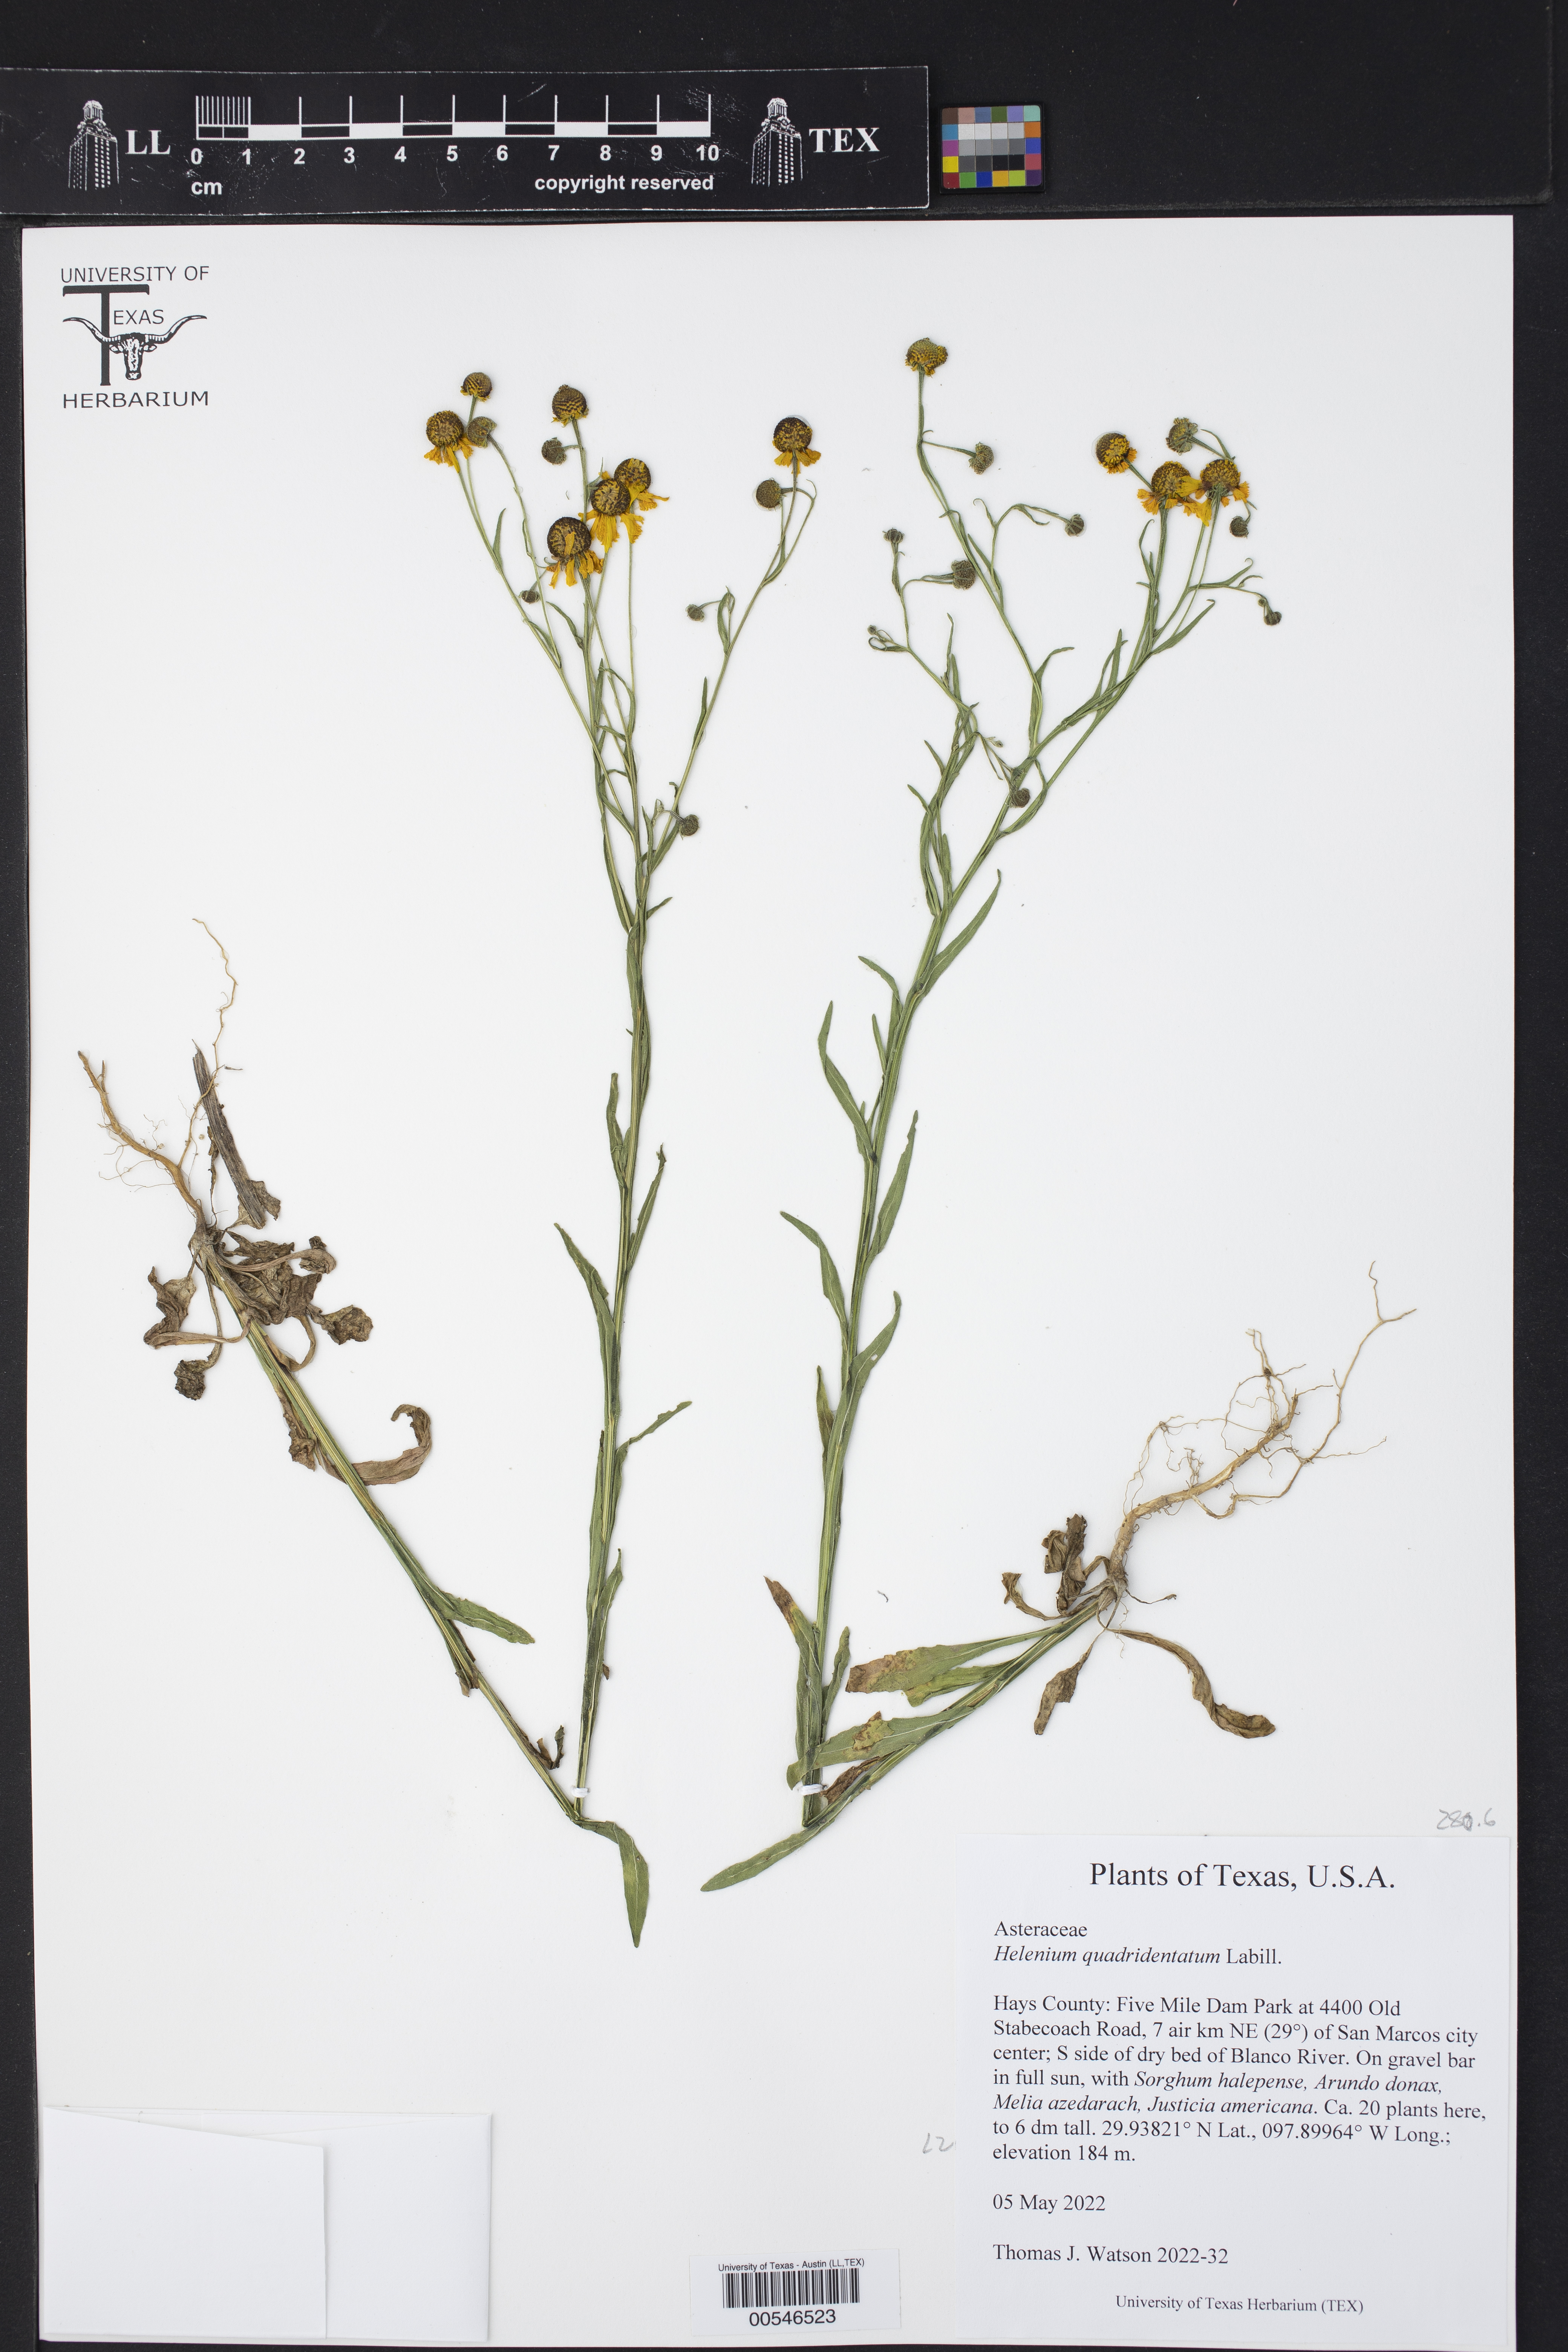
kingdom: Plantae
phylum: Tracheophyta
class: Magnoliopsida
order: Asterales
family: Asteraceae
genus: Helenium
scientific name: Helenium quadridentatum
